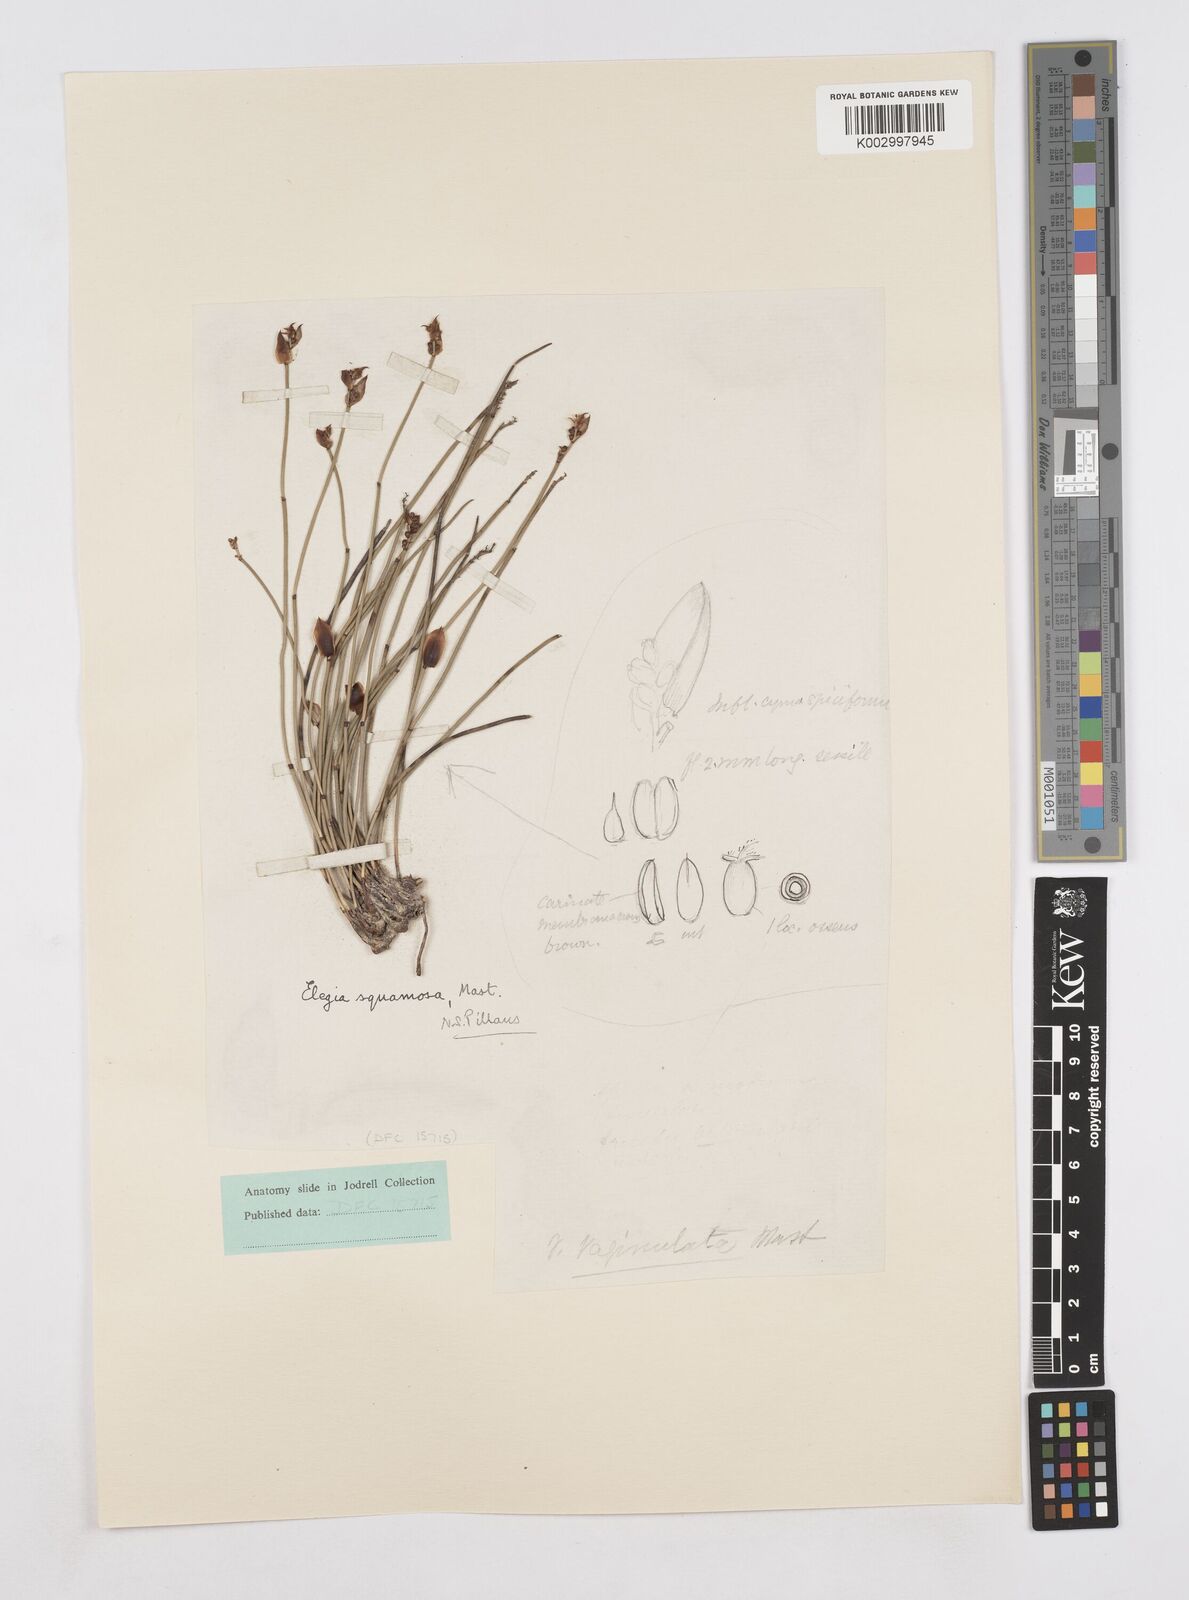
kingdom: Plantae
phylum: Tracheophyta
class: Liliopsida
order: Poales
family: Restionaceae
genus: Elegia
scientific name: Elegia squamosa
